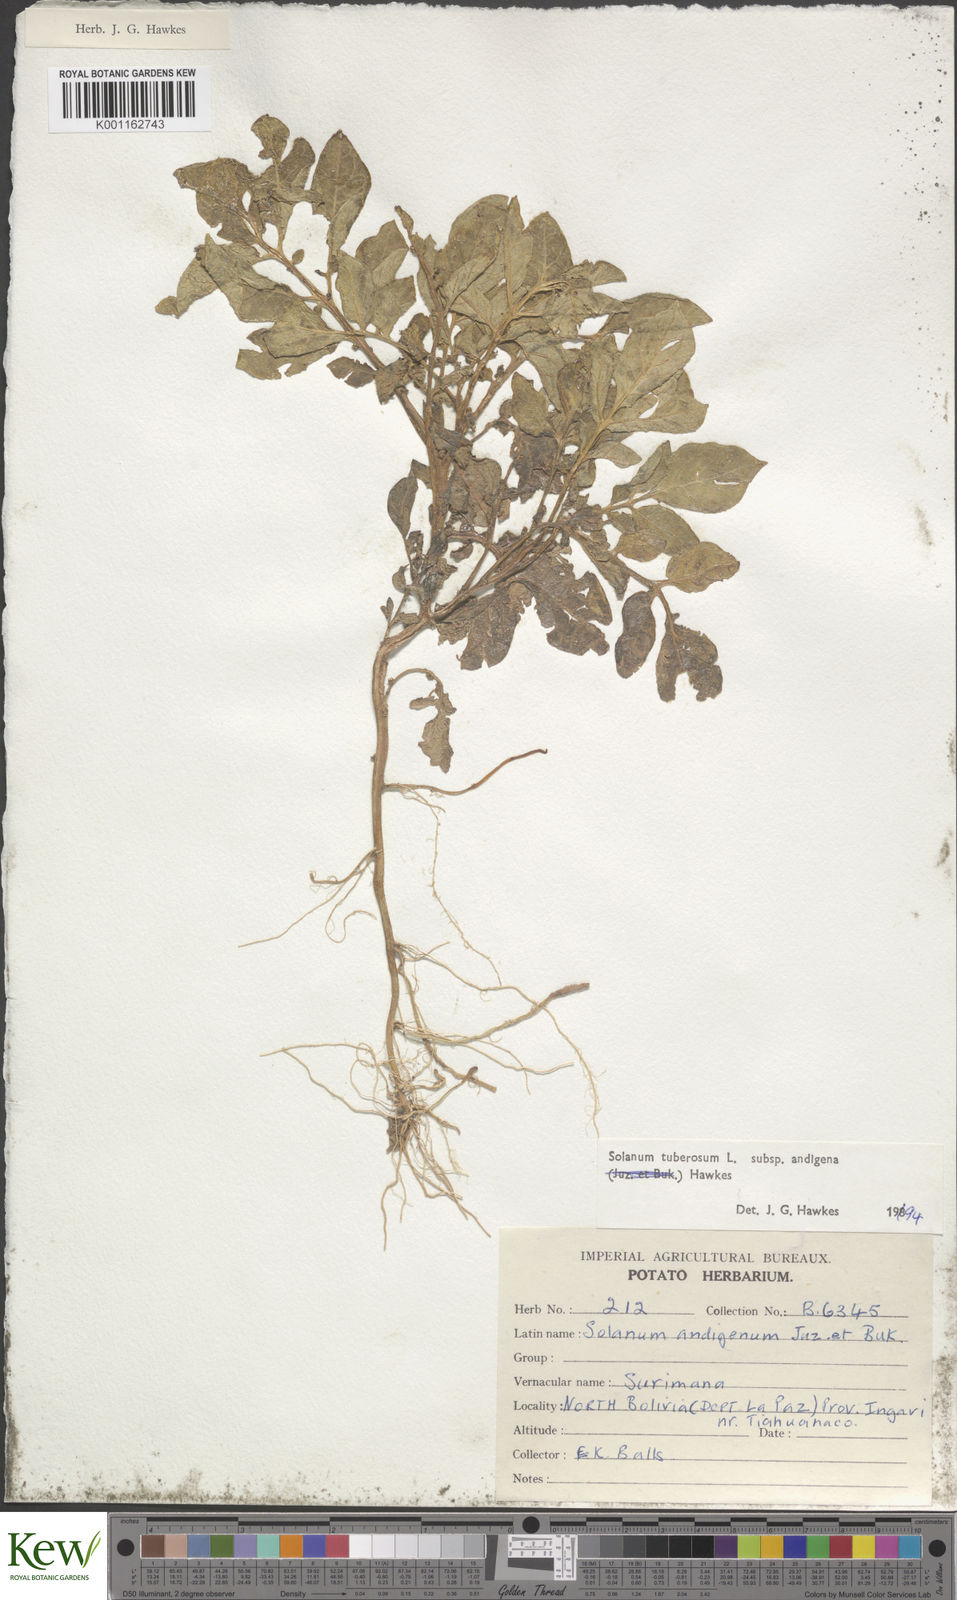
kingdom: Plantae
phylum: Tracheophyta
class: Magnoliopsida
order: Solanales
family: Solanaceae
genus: Solanum
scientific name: Solanum tuberosum
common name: Potato
